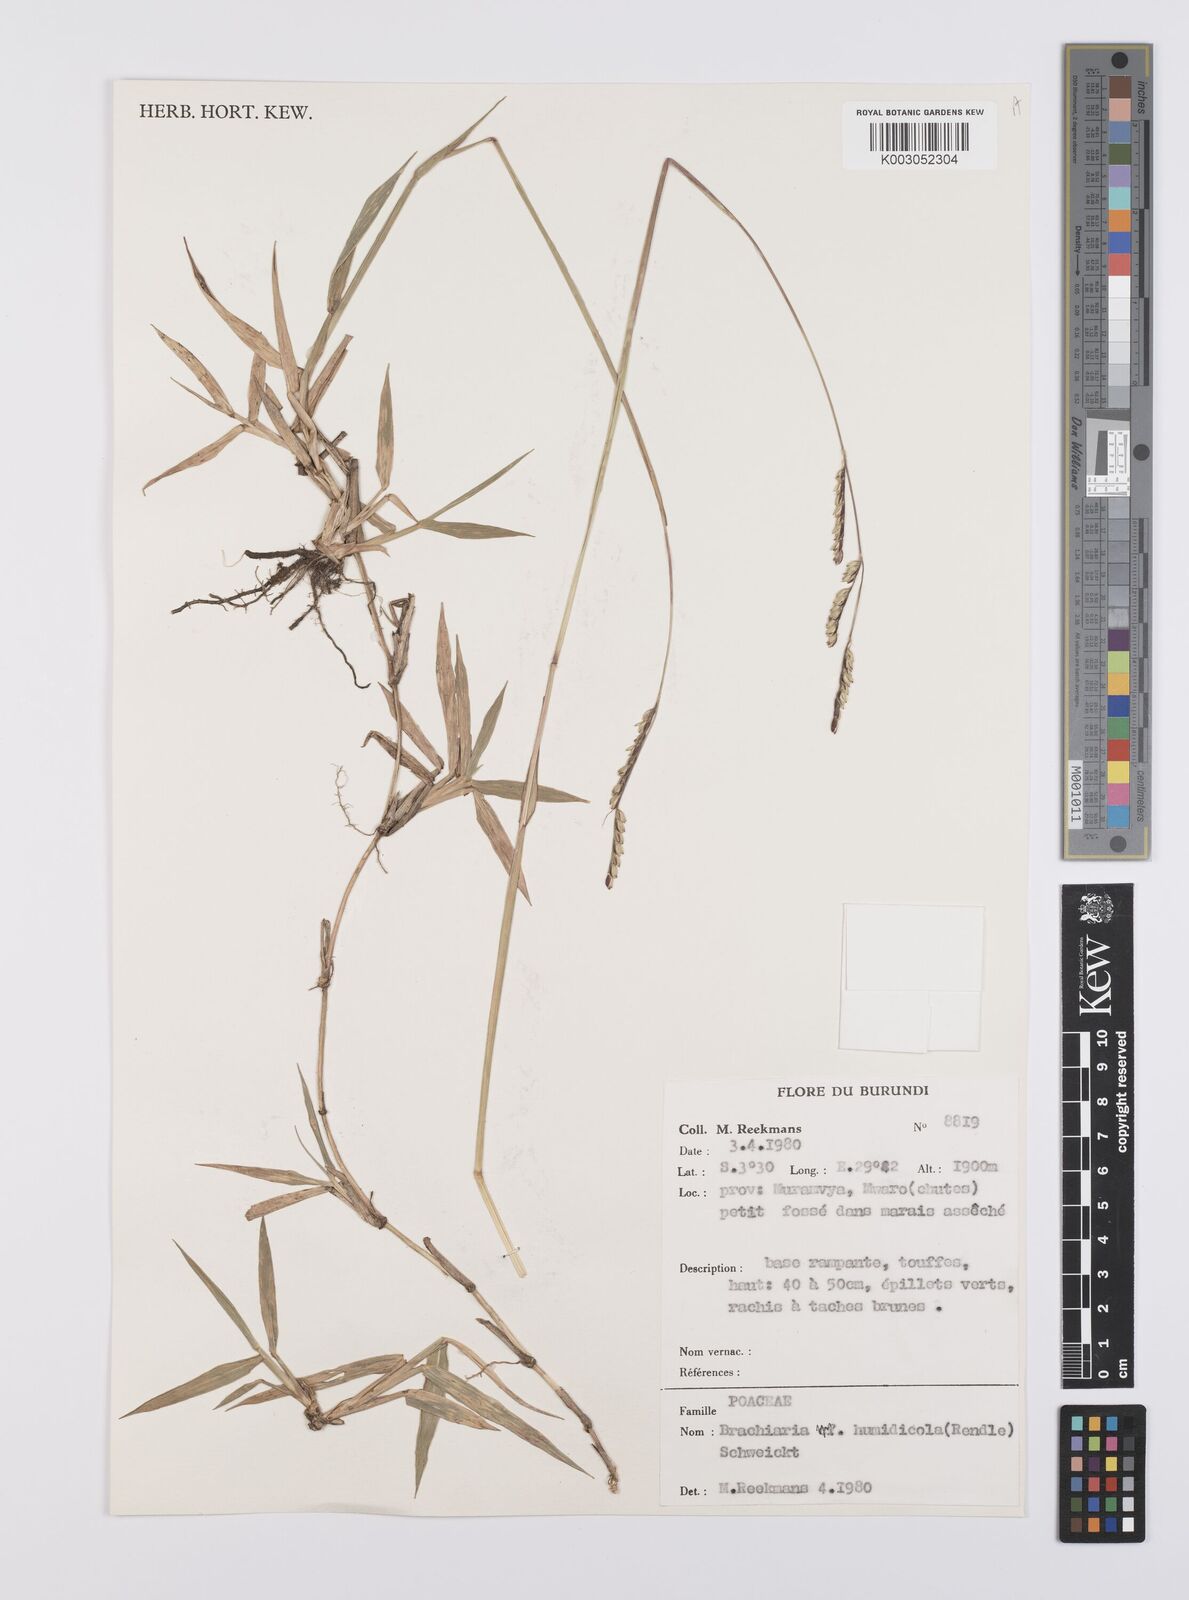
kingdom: Plantae
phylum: Tracheophyta
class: Liliopsida
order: Poales
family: Poaceae
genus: Urochloa
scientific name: Urochloa dictyoneura
